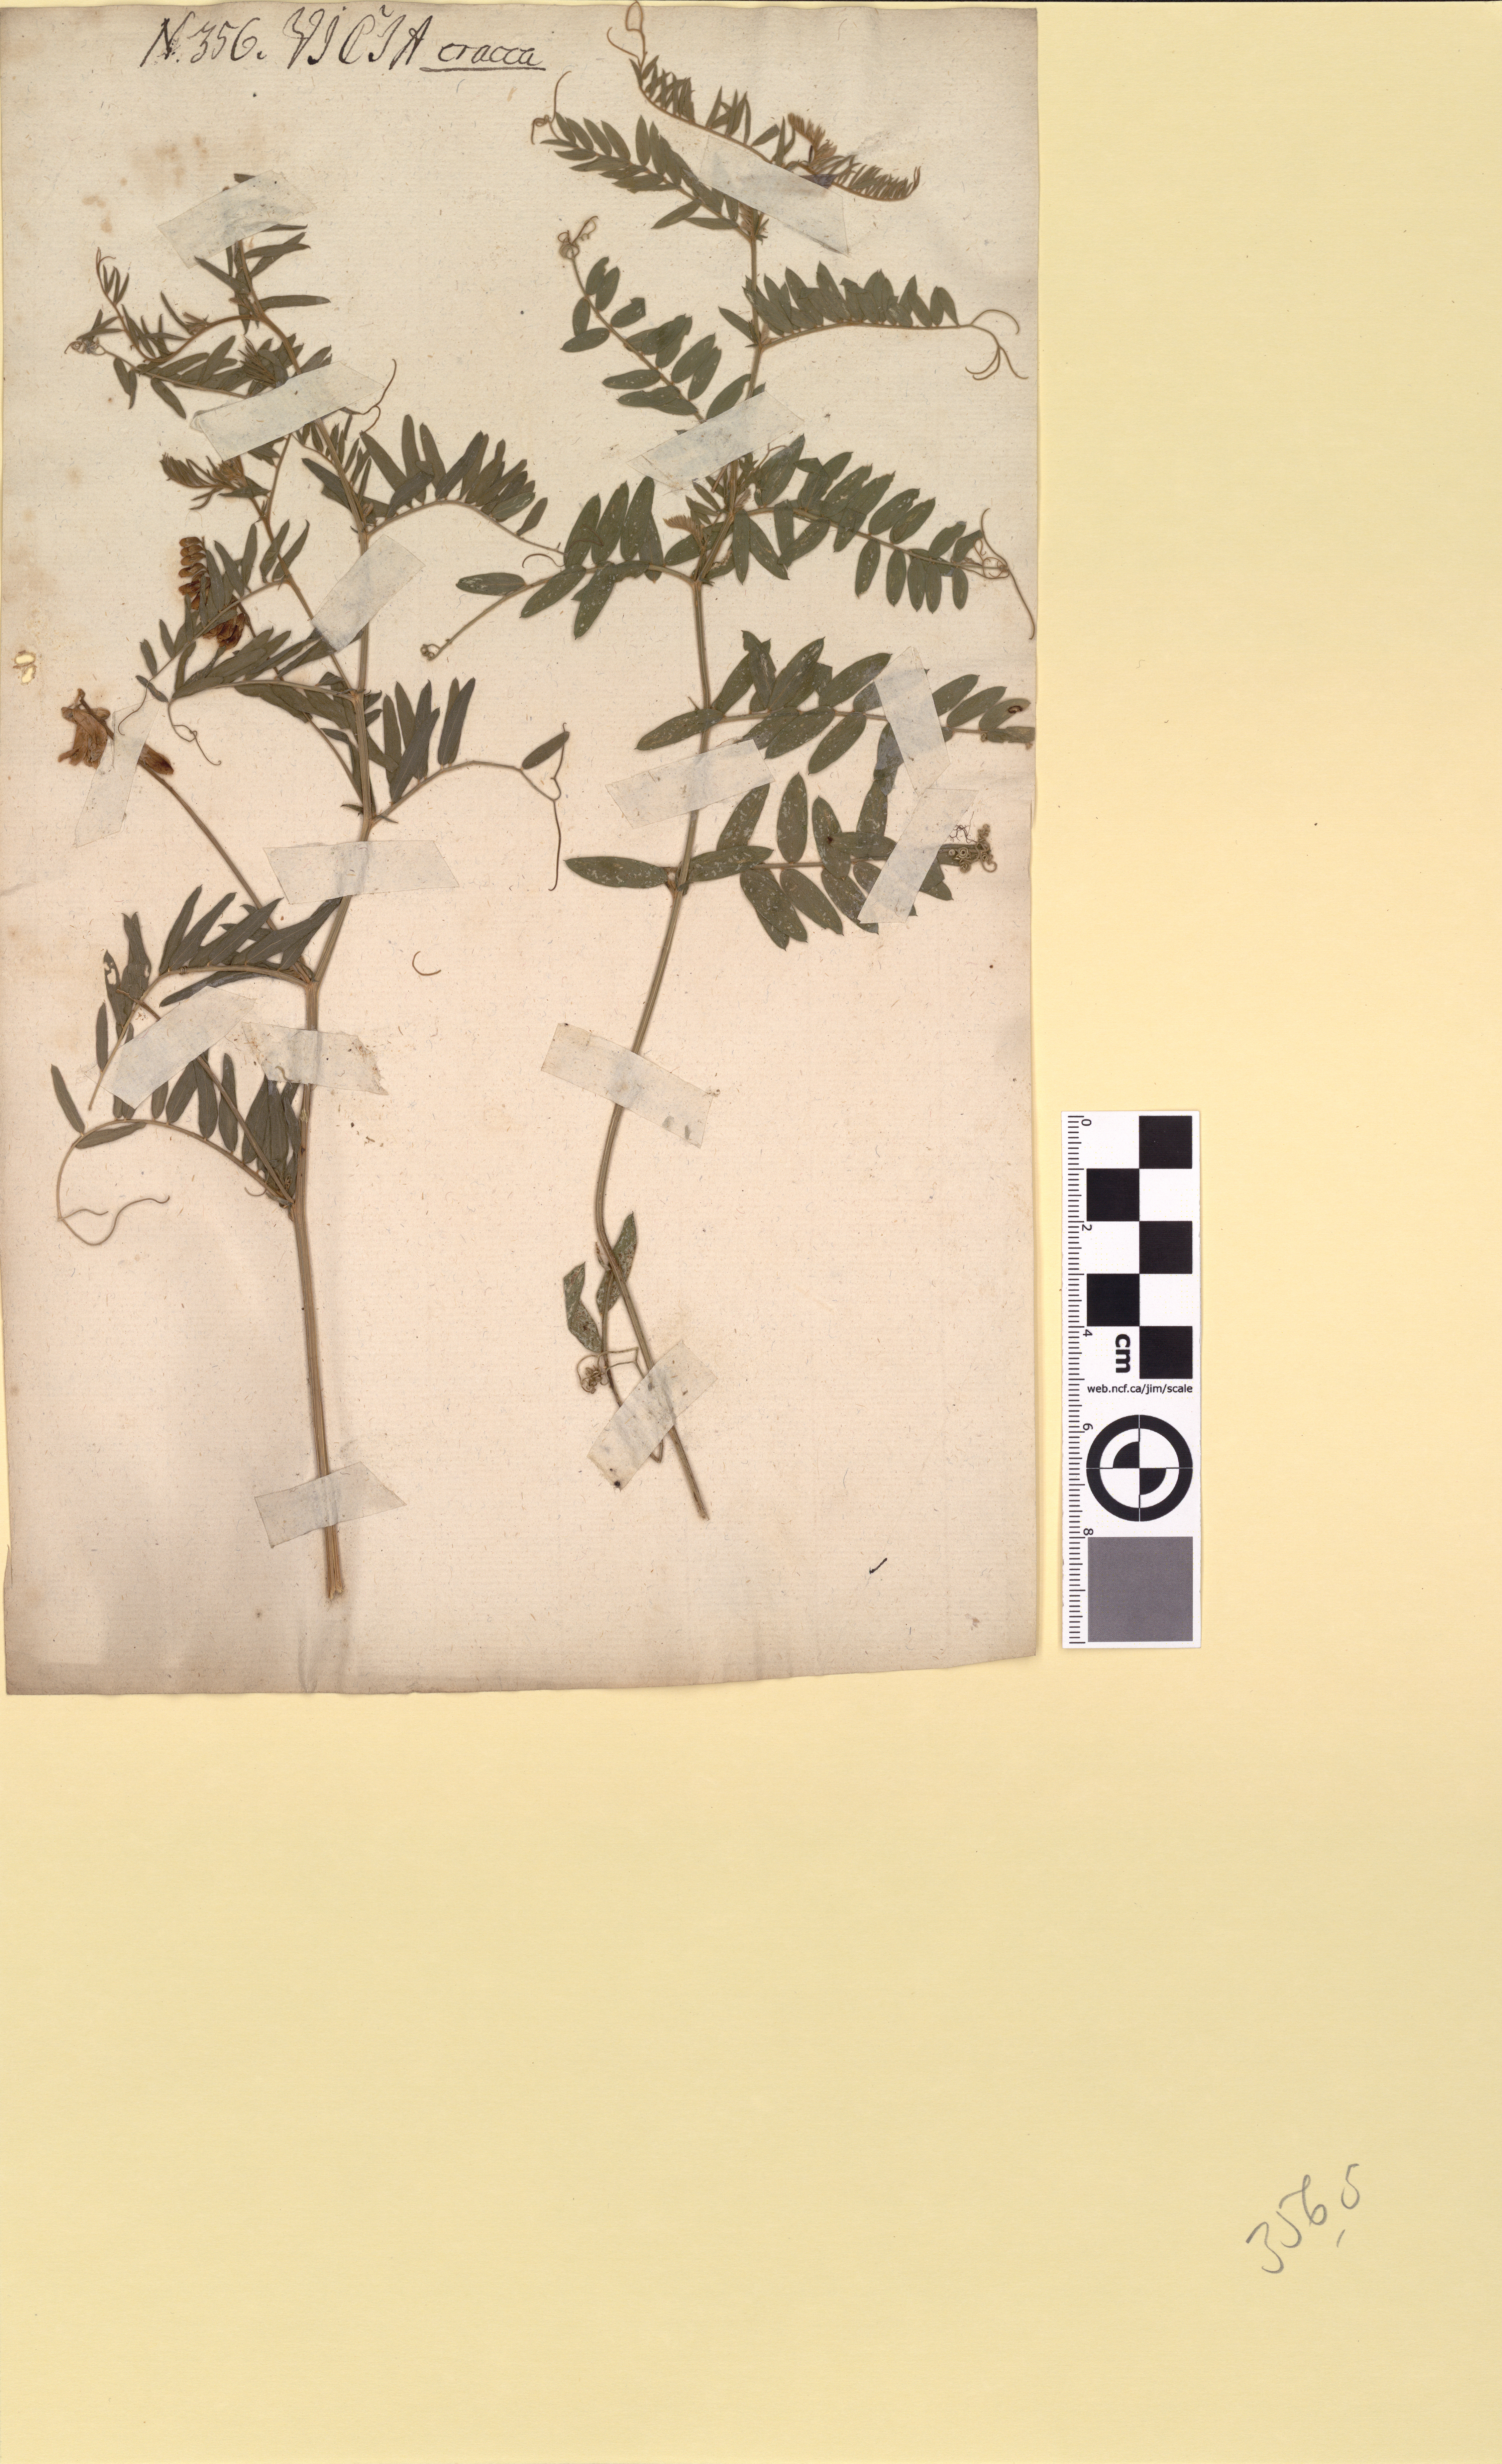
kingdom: Plantae
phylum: Tracheophyta
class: Magnoliopsida
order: Fabales
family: Fabaceae
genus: Vicia
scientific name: Vicia cracca
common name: Bird vetch
